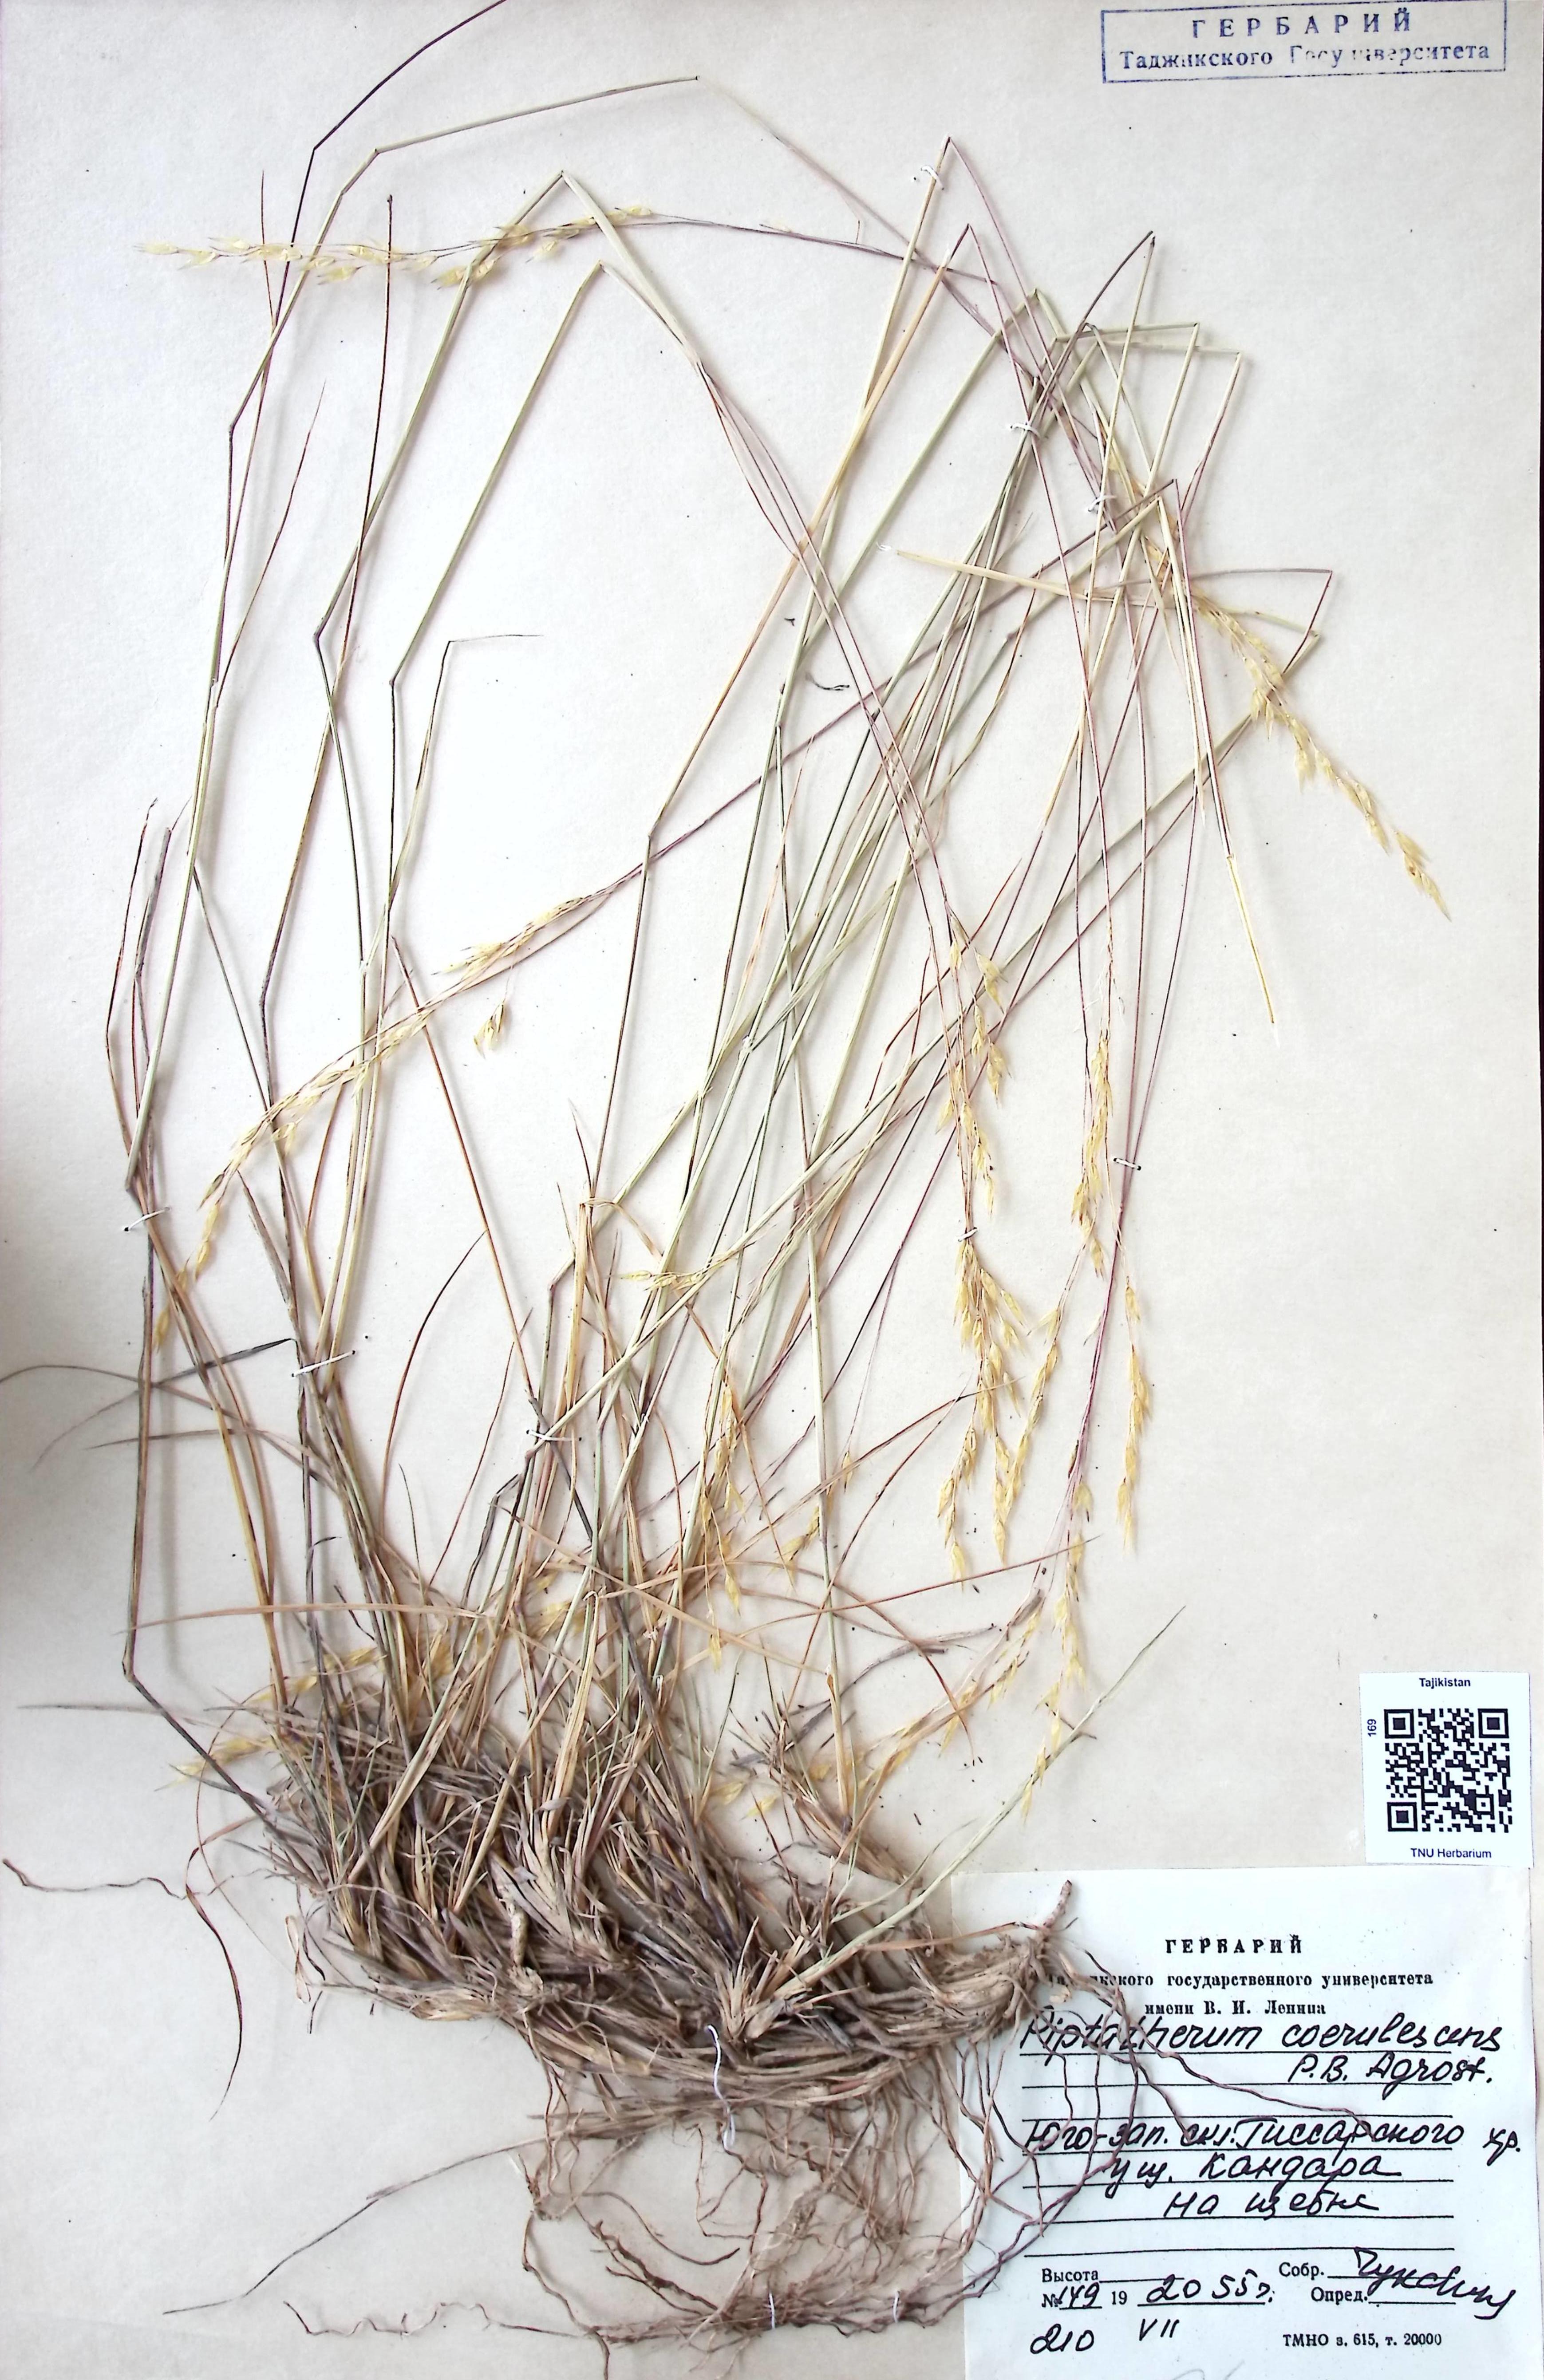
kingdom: Plantae
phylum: Tracheophyta
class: Liliopsida
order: Poales
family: Poaceae
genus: Piptatherum
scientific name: Piptatherum coerulescens
